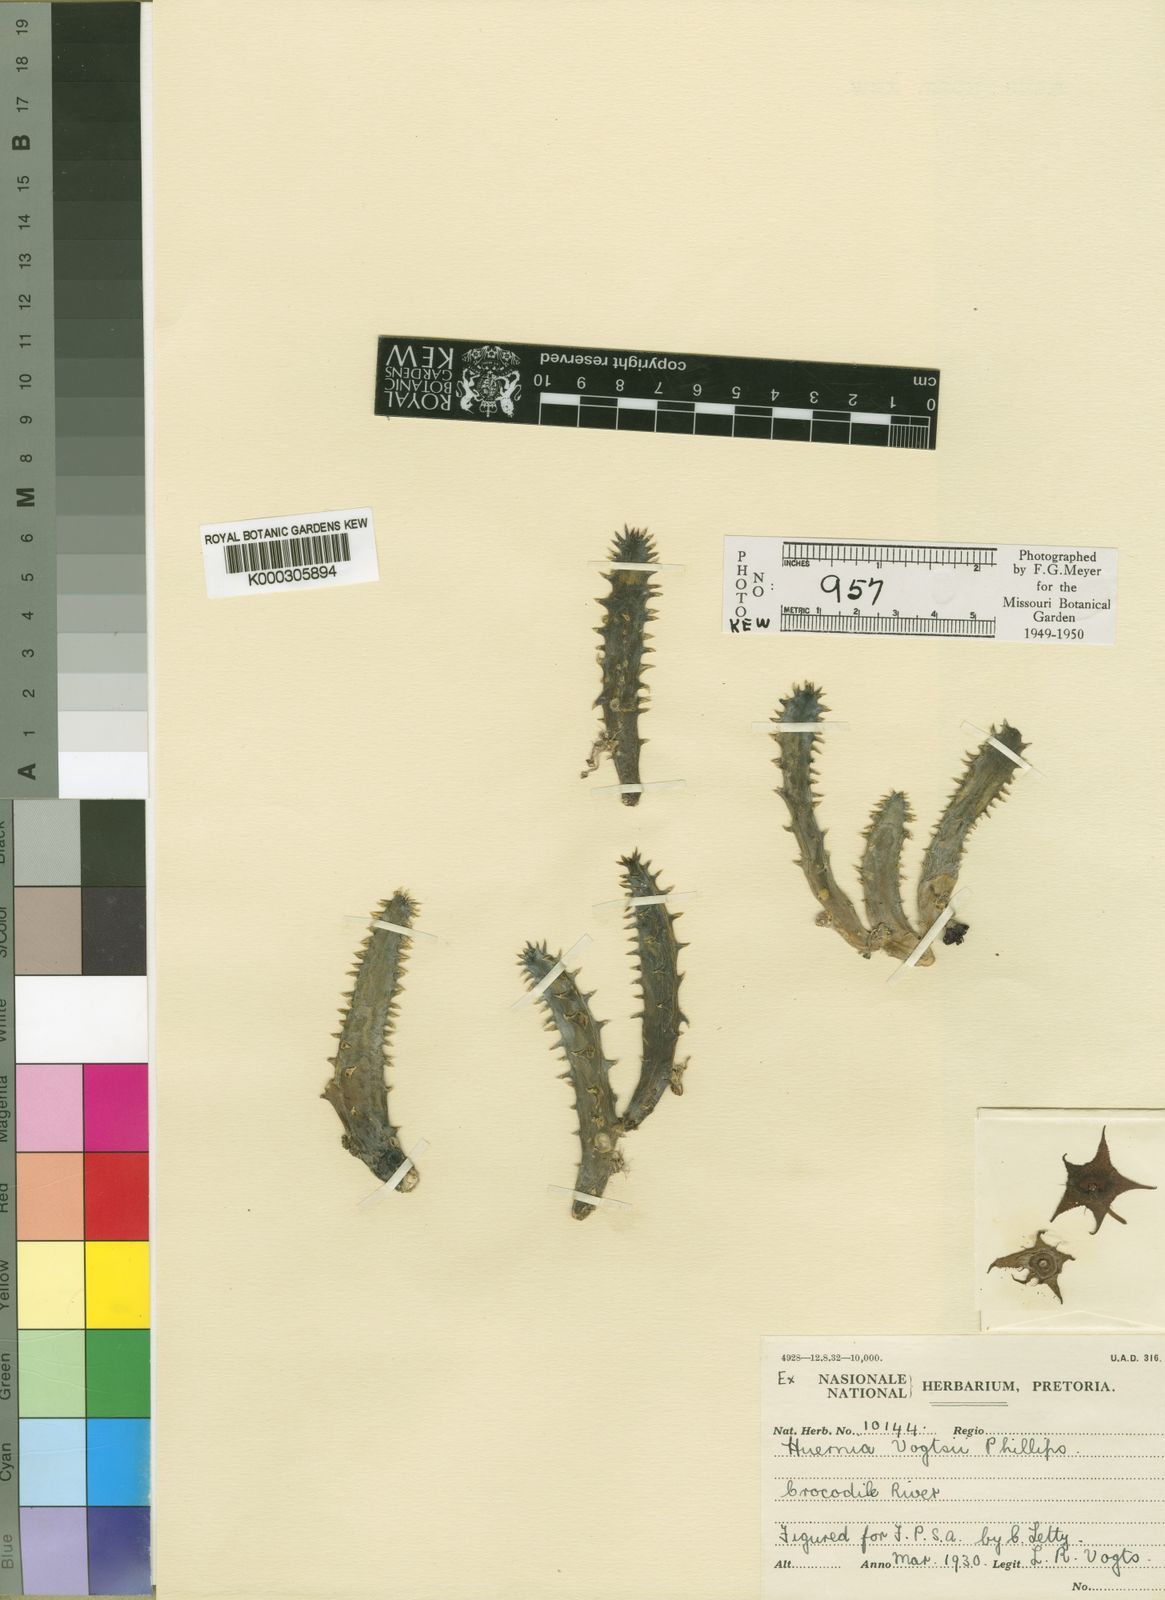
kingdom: Plantae
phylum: Tracheophyta
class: Magnoliopsida
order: Gentianales
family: Apocynaceae
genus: Ceropegia
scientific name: Ceropegia stapelioides
